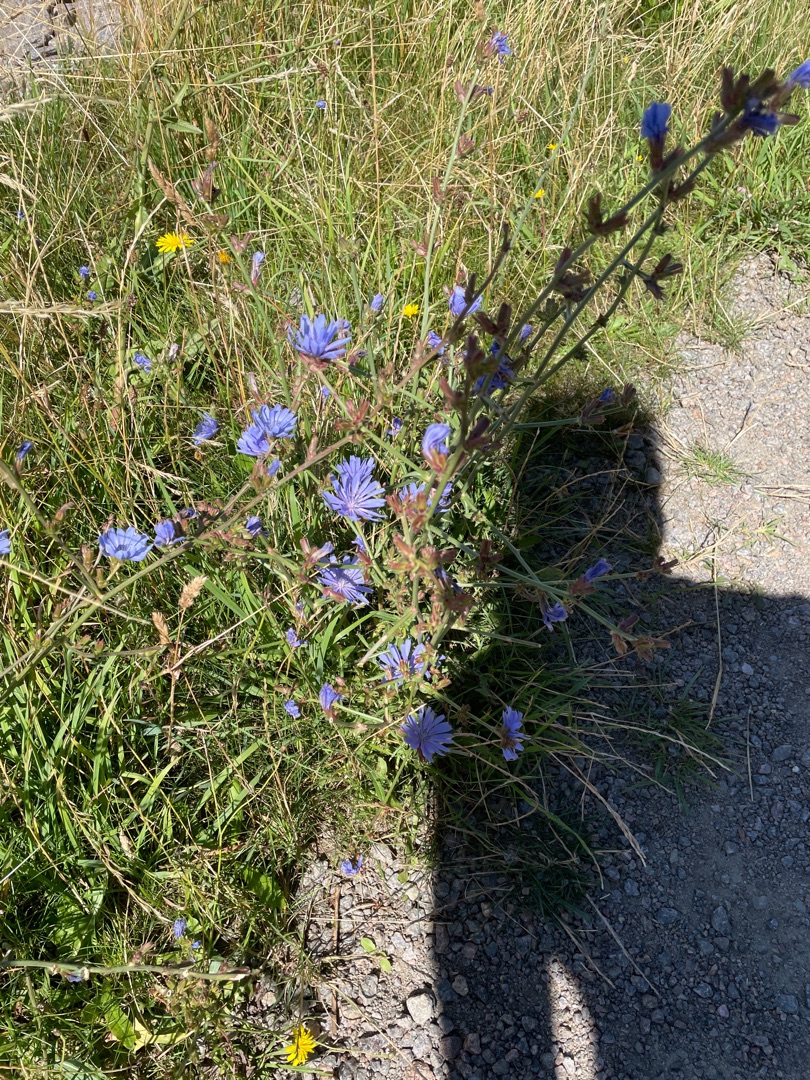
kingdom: Plantae
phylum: Tracheophyta
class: Magnoliopsida
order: Asterales
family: Asteraceae
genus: Cichorium
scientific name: Cichorium intybus
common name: Cikorie
